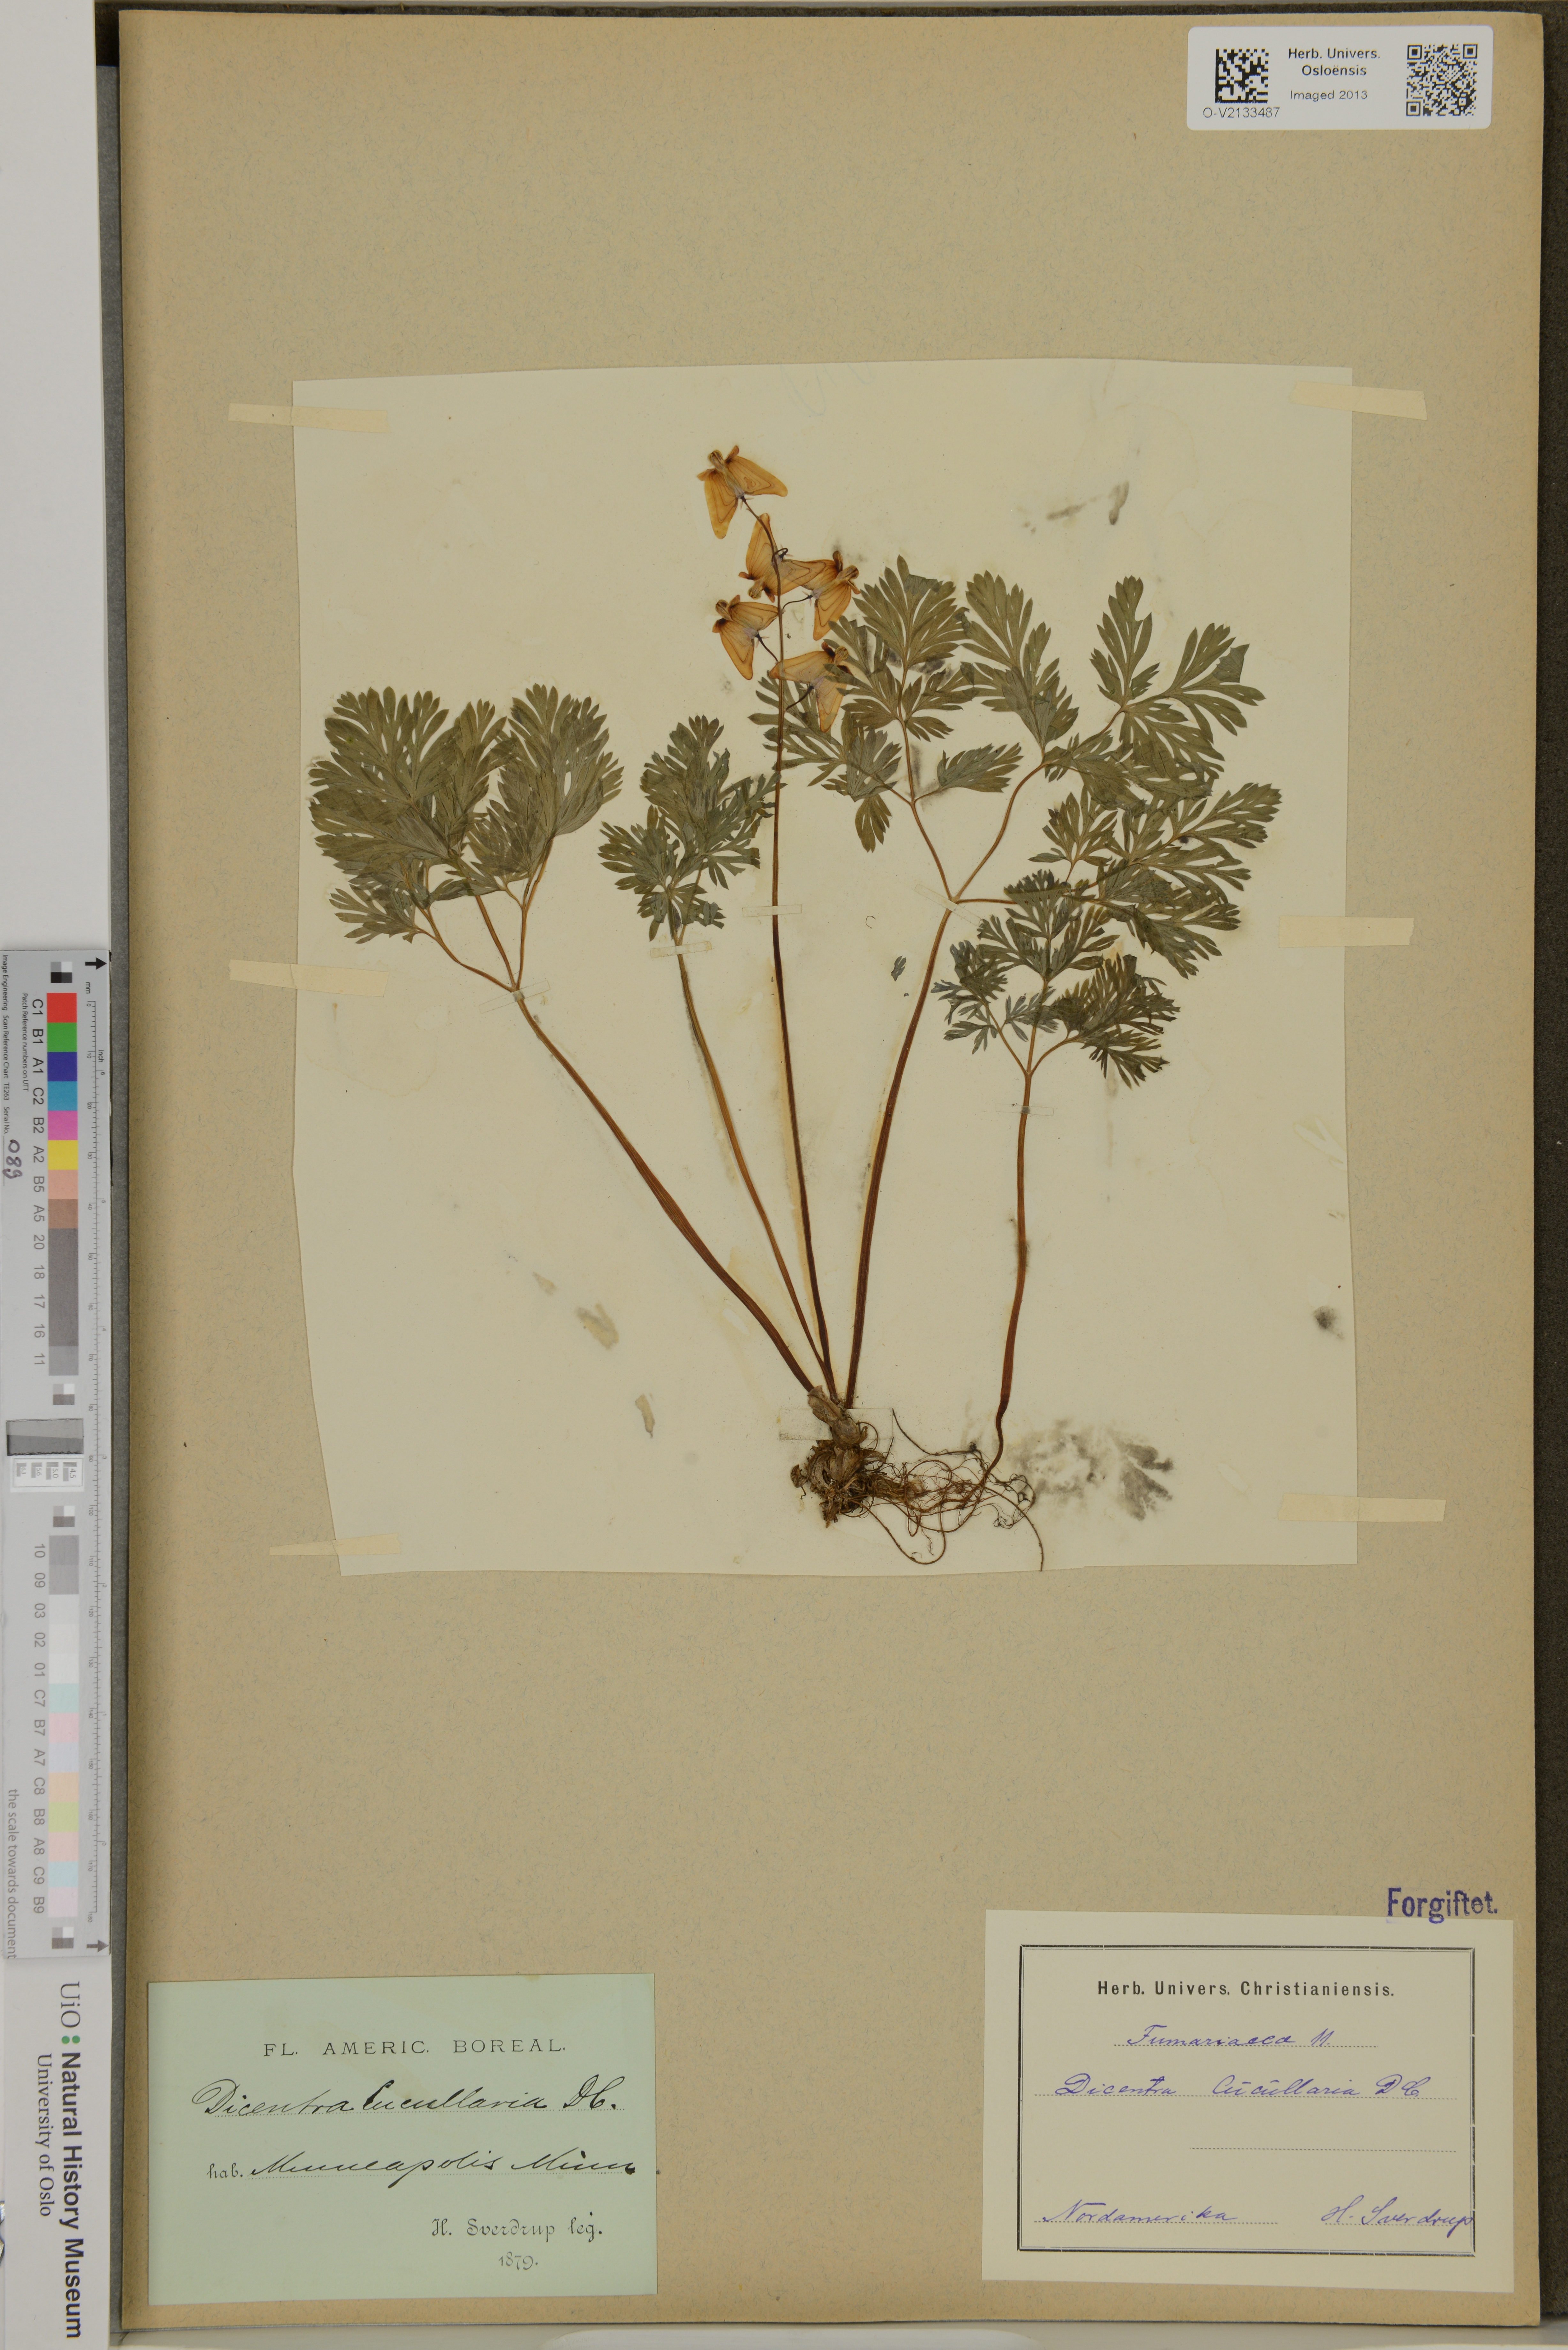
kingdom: Plantae
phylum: Tracheophyta
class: Magnoliopsida
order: Ranunculales
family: Papaveraceae
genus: Dicentra
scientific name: Dicentra cucullaria
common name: Dutchman's breeches
